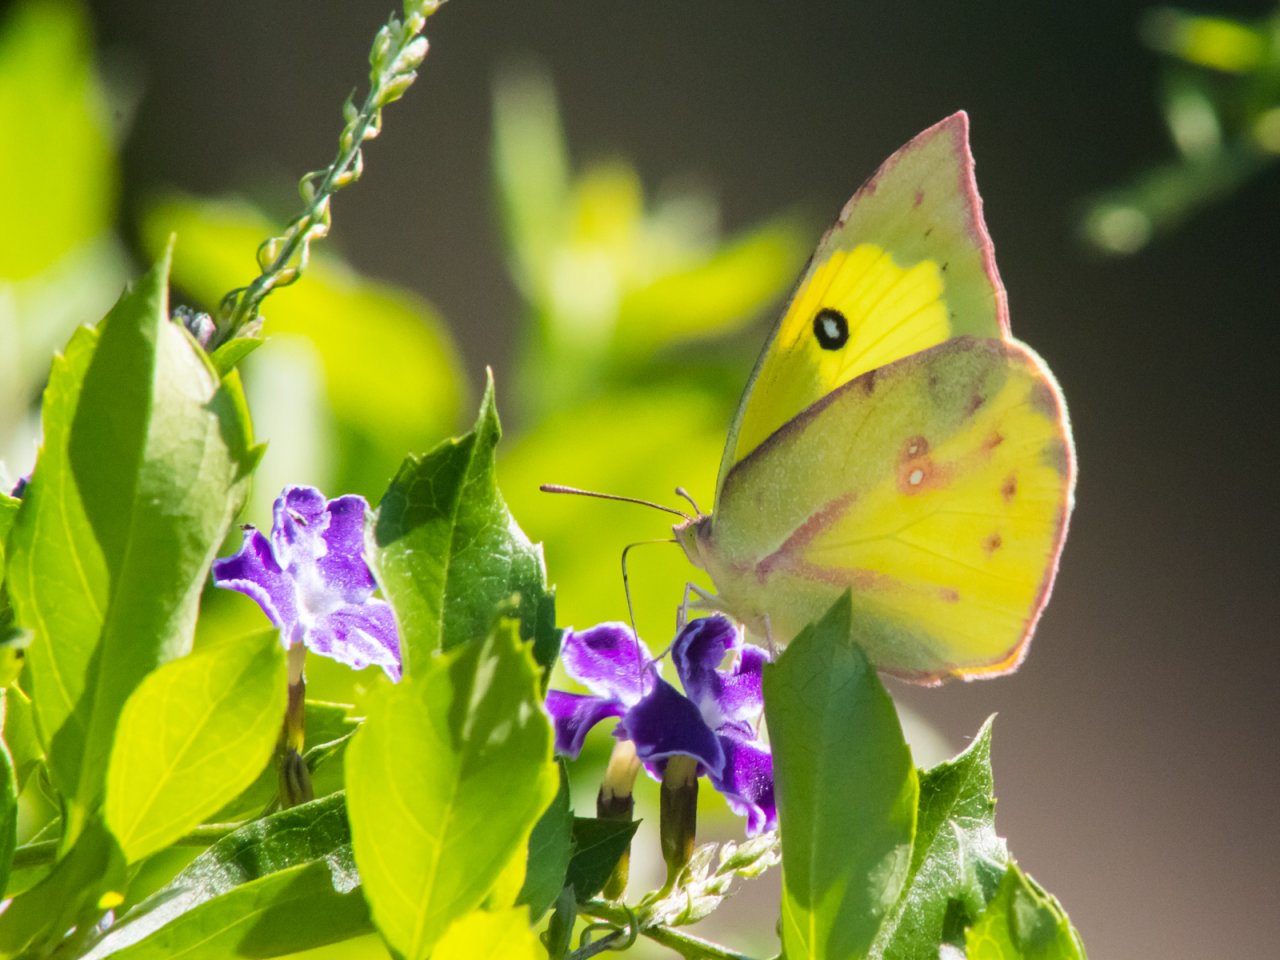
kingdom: Animalia
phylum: Arthropoda
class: Insecta
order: Lepidoptera
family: Pieridae
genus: Zerene
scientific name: Zerene cesonia
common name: Southern Dogface
